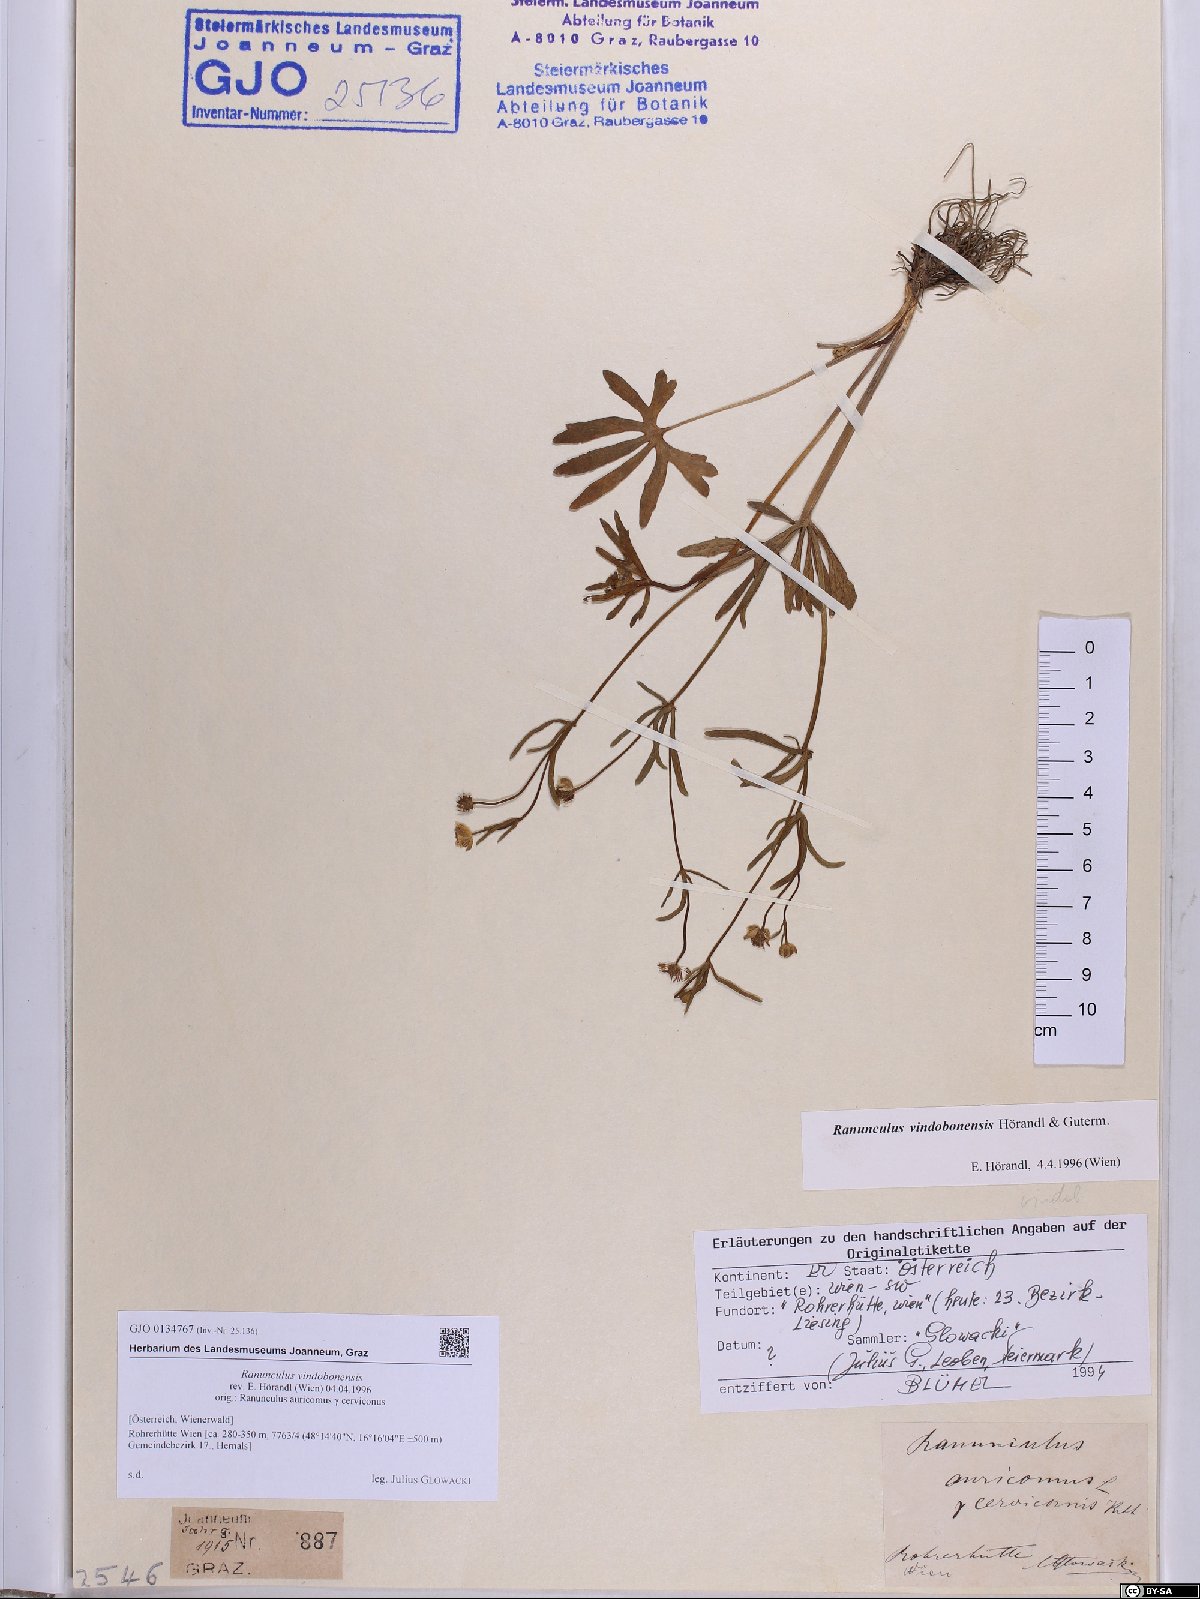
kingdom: Plantae
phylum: Tracheophyta
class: Magnoliopsida
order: Ranunculales
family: Ranunculaceae
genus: Ranunculus
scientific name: Ranunculus vindobonensis
